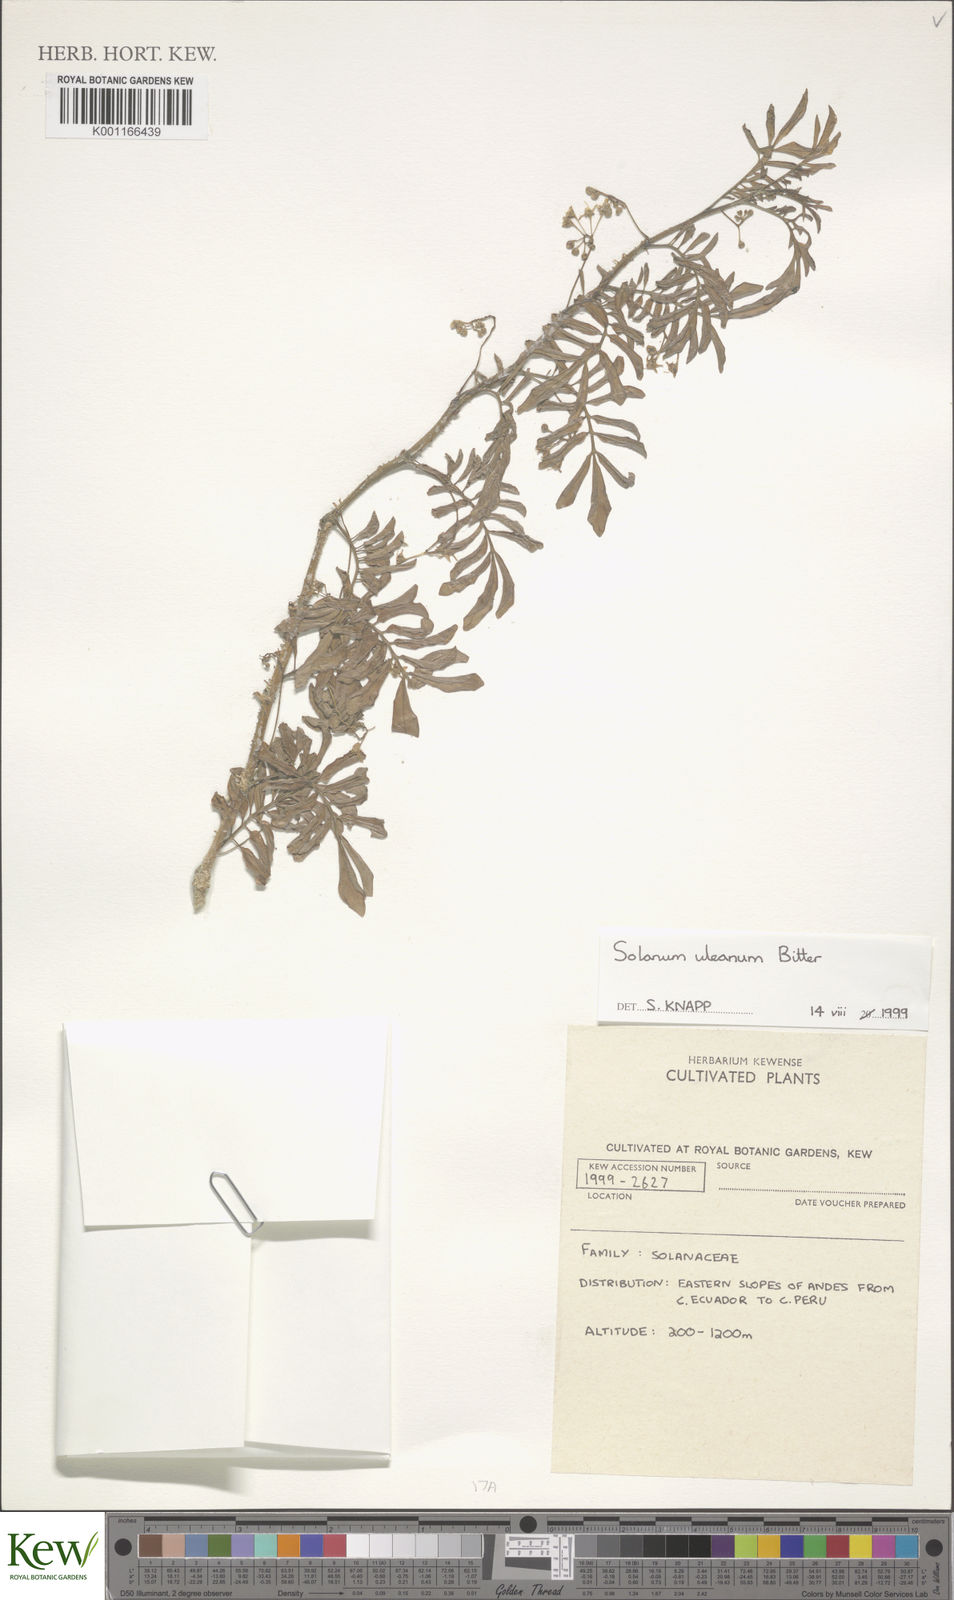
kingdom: Plantae
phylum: Tracheophyta
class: Magnoliopsida
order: Solanales
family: Solanaceae
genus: Solanum
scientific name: Solanum uleanum
